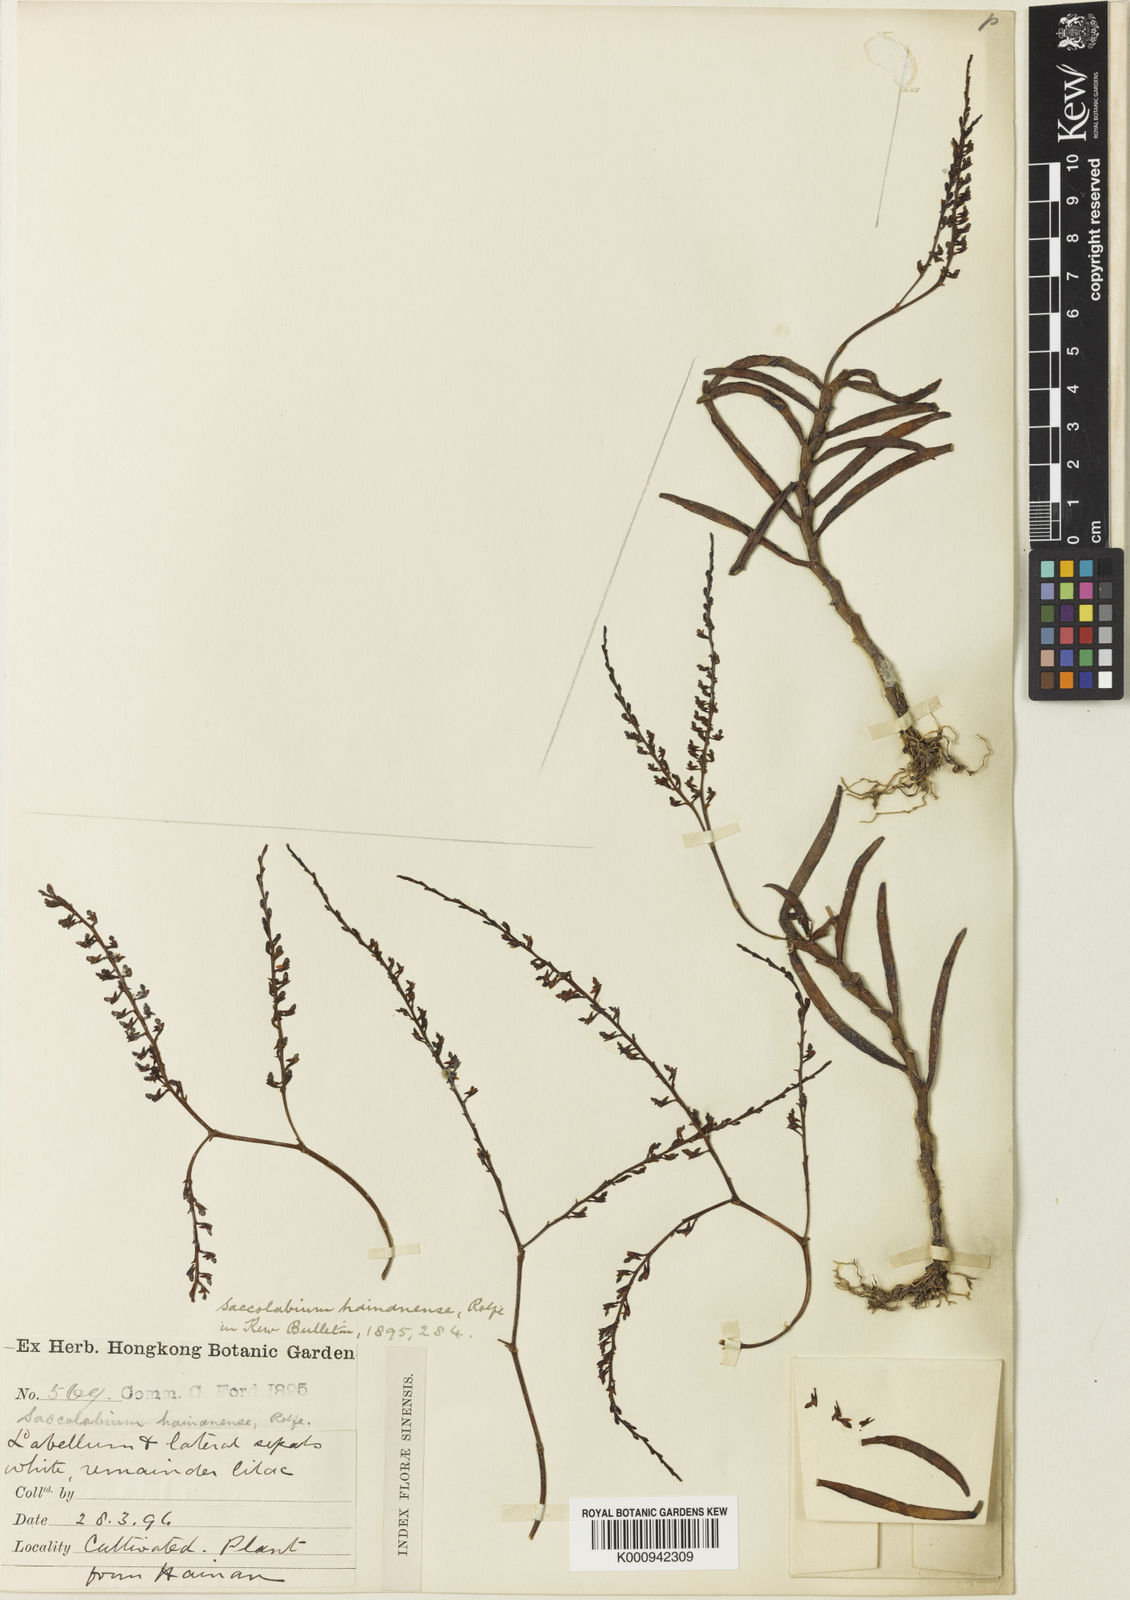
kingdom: Plantae
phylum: Tracheophyta
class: Liliopsida
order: Asparagales
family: Orchidaceae
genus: Schoenorchis
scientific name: Schoenorchis gemmata
